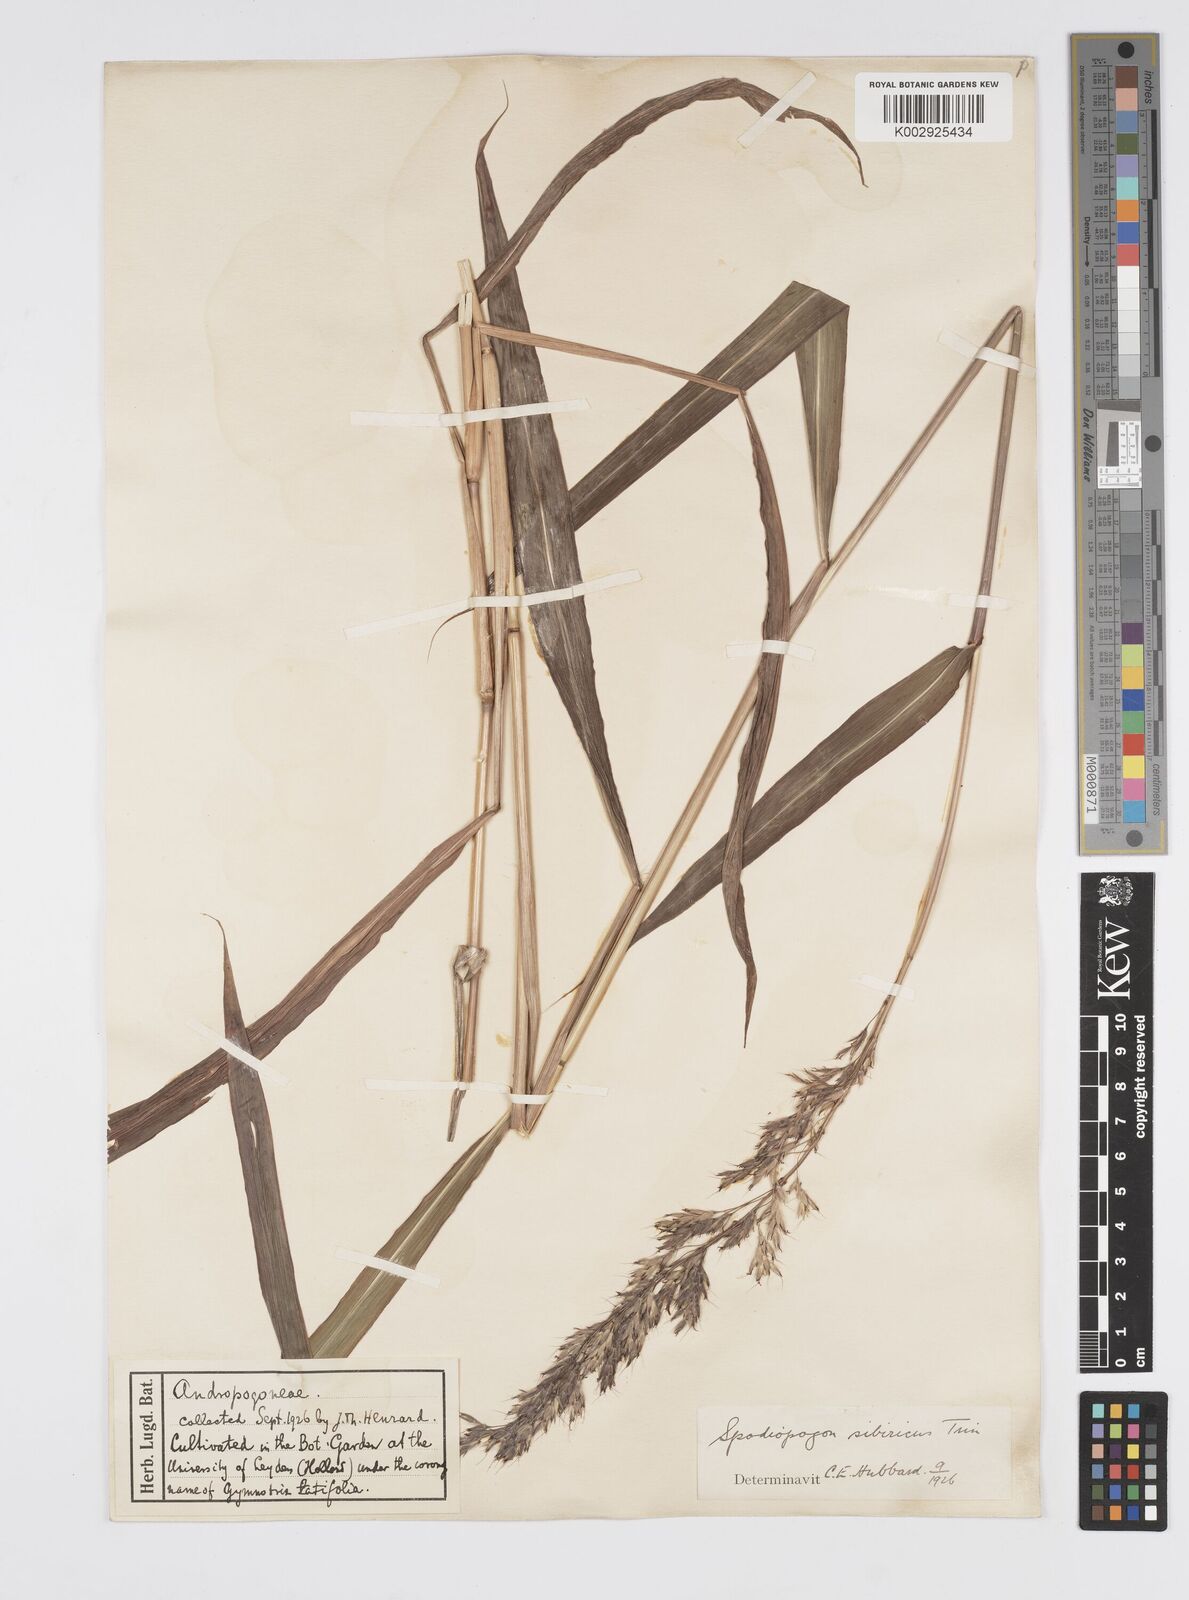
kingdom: Plantae
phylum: Tracheophyta
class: Liliopsida
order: Poales
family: Poaceae
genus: Spodiopogon
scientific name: Spodiopogon sibiricus
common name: Siberian graybeard
